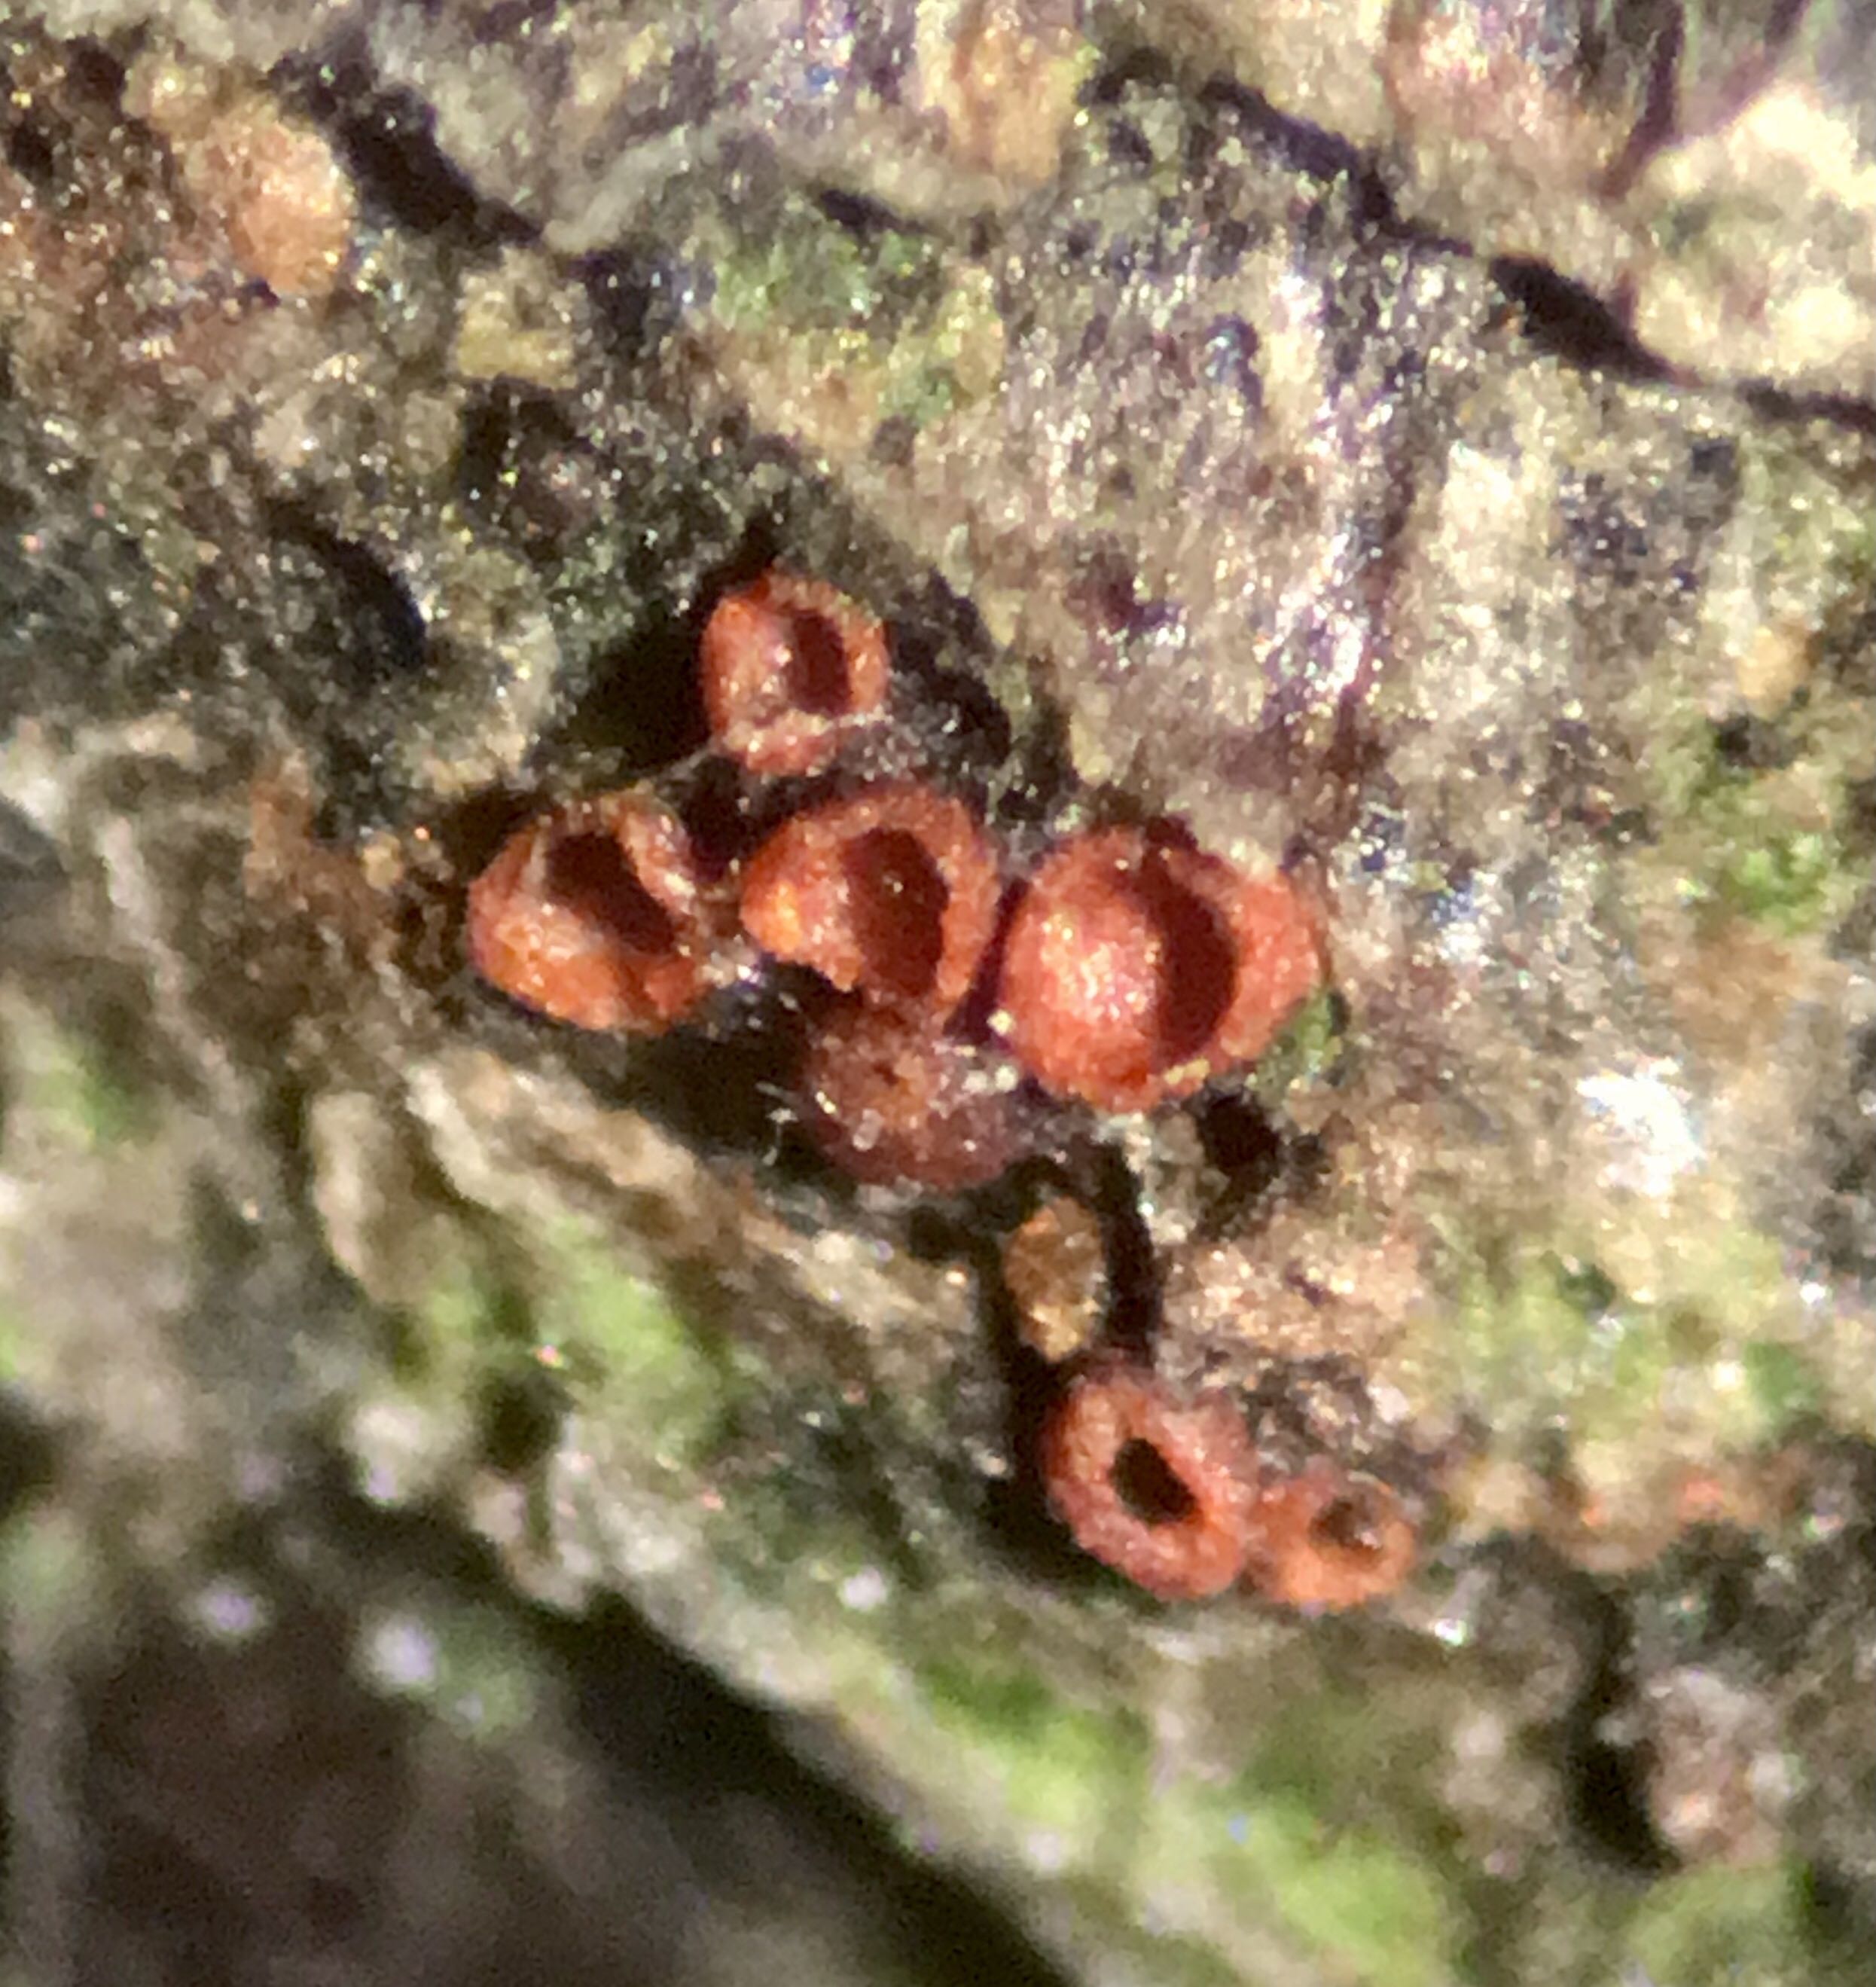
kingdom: Fungi
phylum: Ascomycota
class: Sordariomycetes
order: Hypocreales
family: Nectriaceae
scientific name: Nectriaceae
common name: cinnobersvampfamilien
